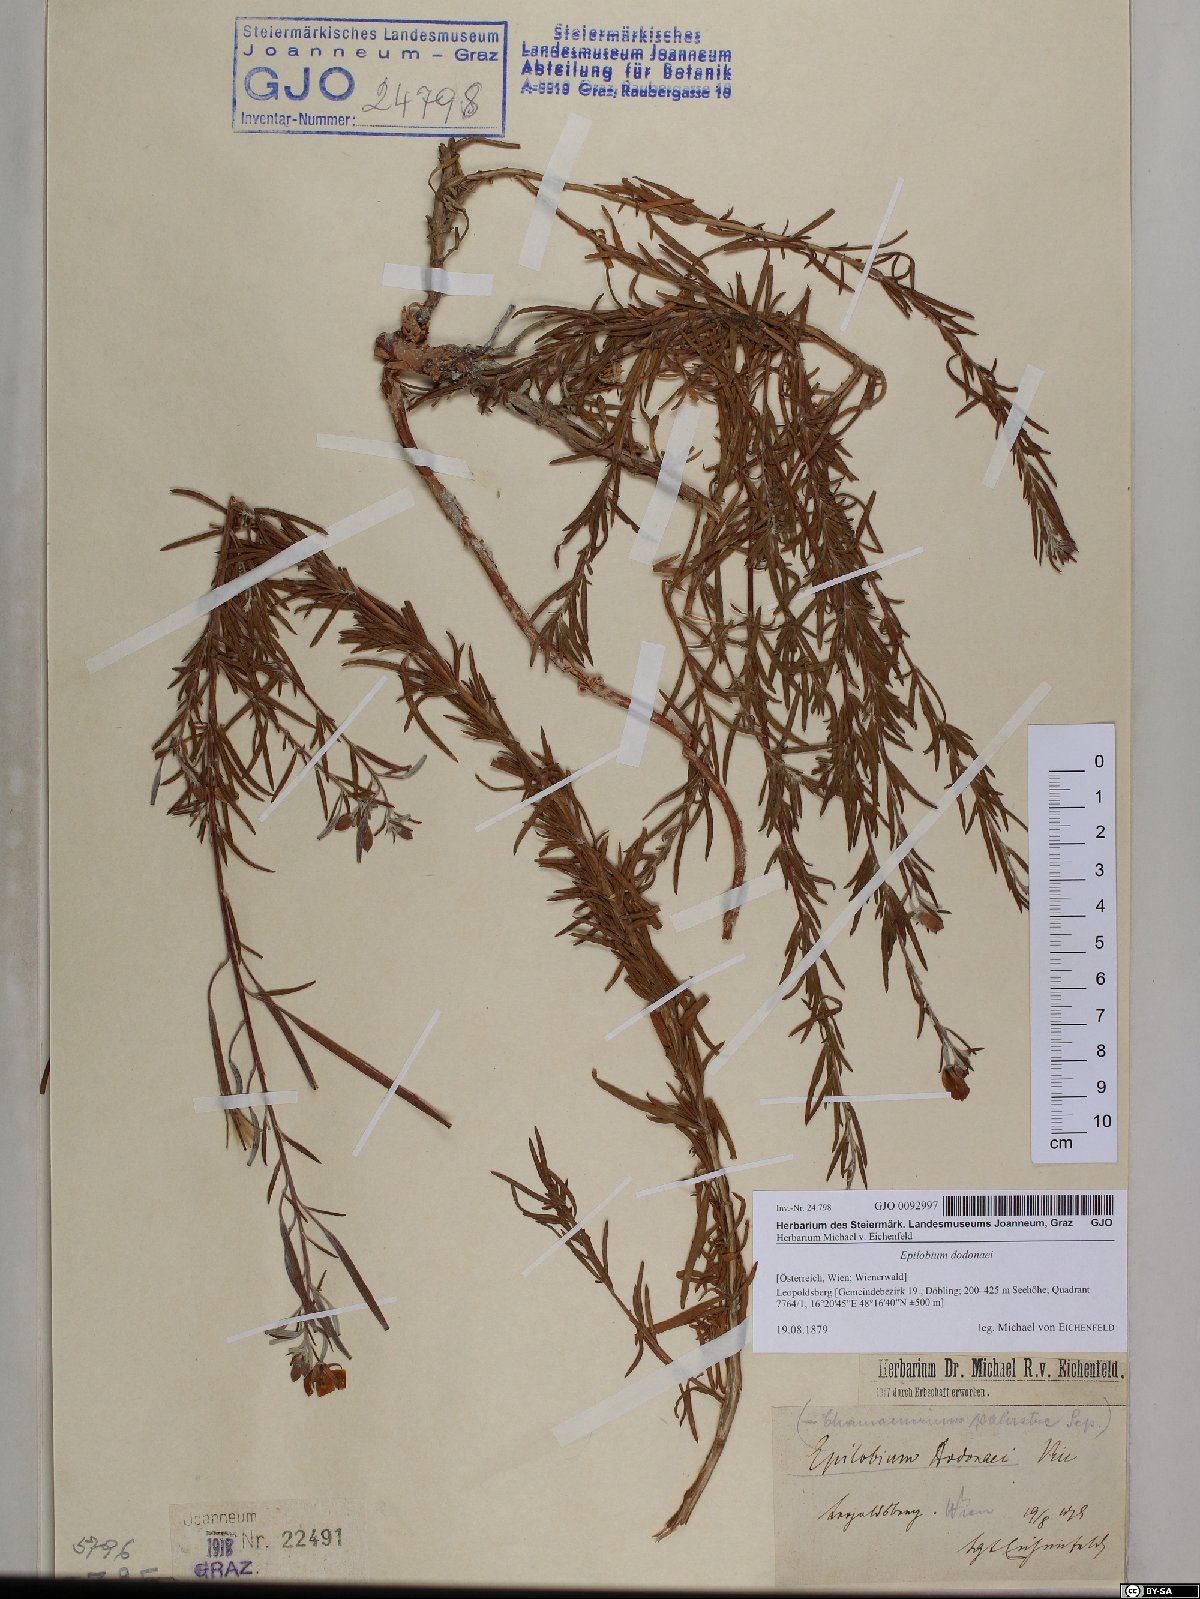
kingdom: Plantae
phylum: Tracheophyta
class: Magnoliopsida
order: Myrtales
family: Onagraceae
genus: Chamaenerion
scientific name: Chamaenerion dodonaei
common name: Rosemary-leaved willowherb
